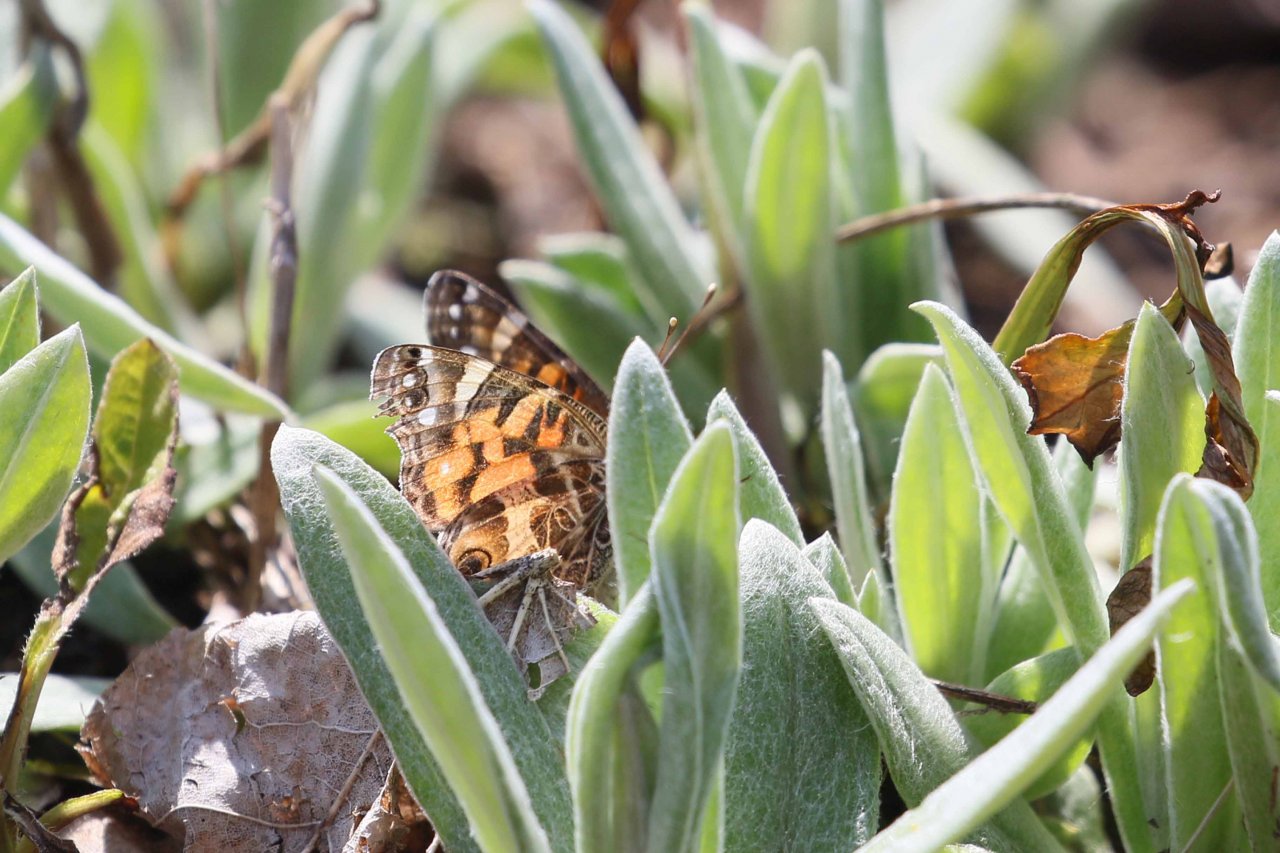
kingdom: Animalia
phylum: Arthropoda
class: Insecta
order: Lepidoptera
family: Nymphalidae
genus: Vanessa
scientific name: Vanessa virginiensis
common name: American Lady
